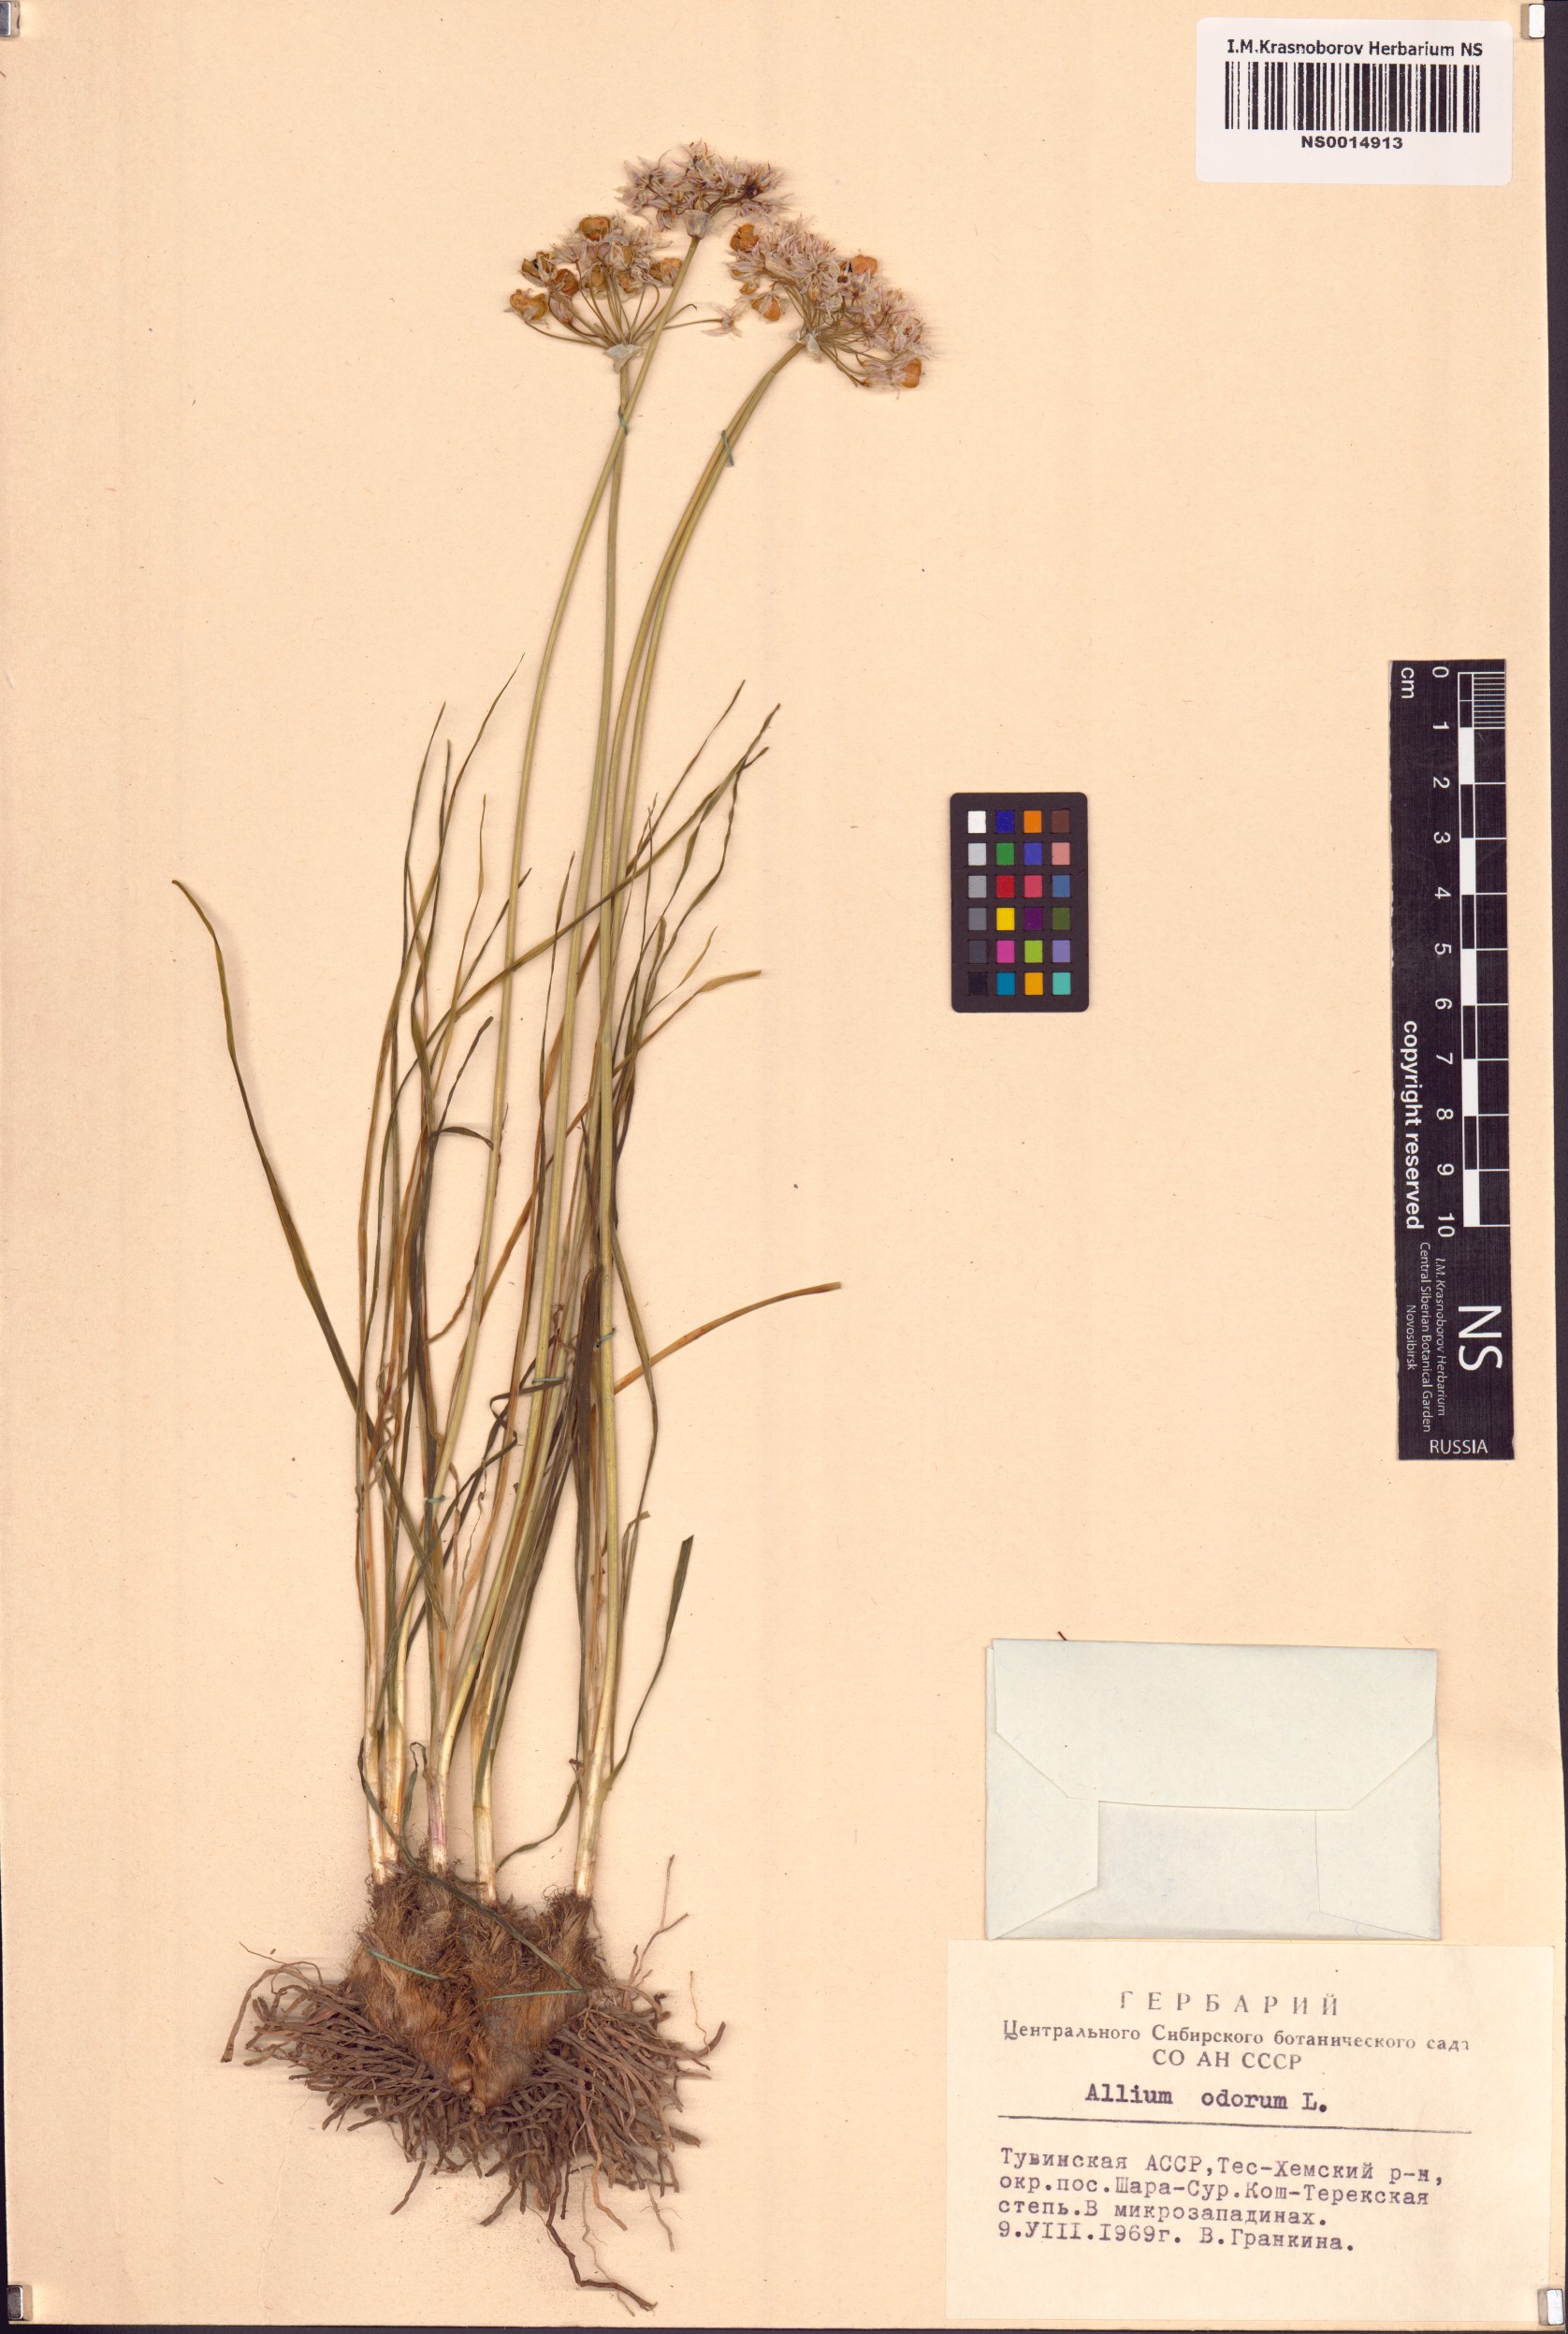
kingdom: Plantae
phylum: Tracheophyta
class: Liliopsida
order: Asparagales
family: Amaryllidaceae
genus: Allium
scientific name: Allium ramosum
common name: Fragrant garlic
